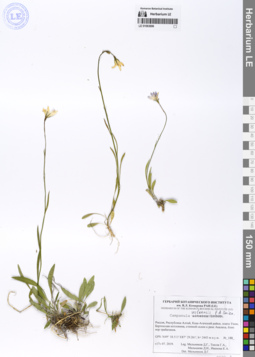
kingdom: Plantae
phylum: Tracheophyta
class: Magnoliopsida
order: Asterales
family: Campanulaceae
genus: Campanula
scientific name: Campanula stevenii
